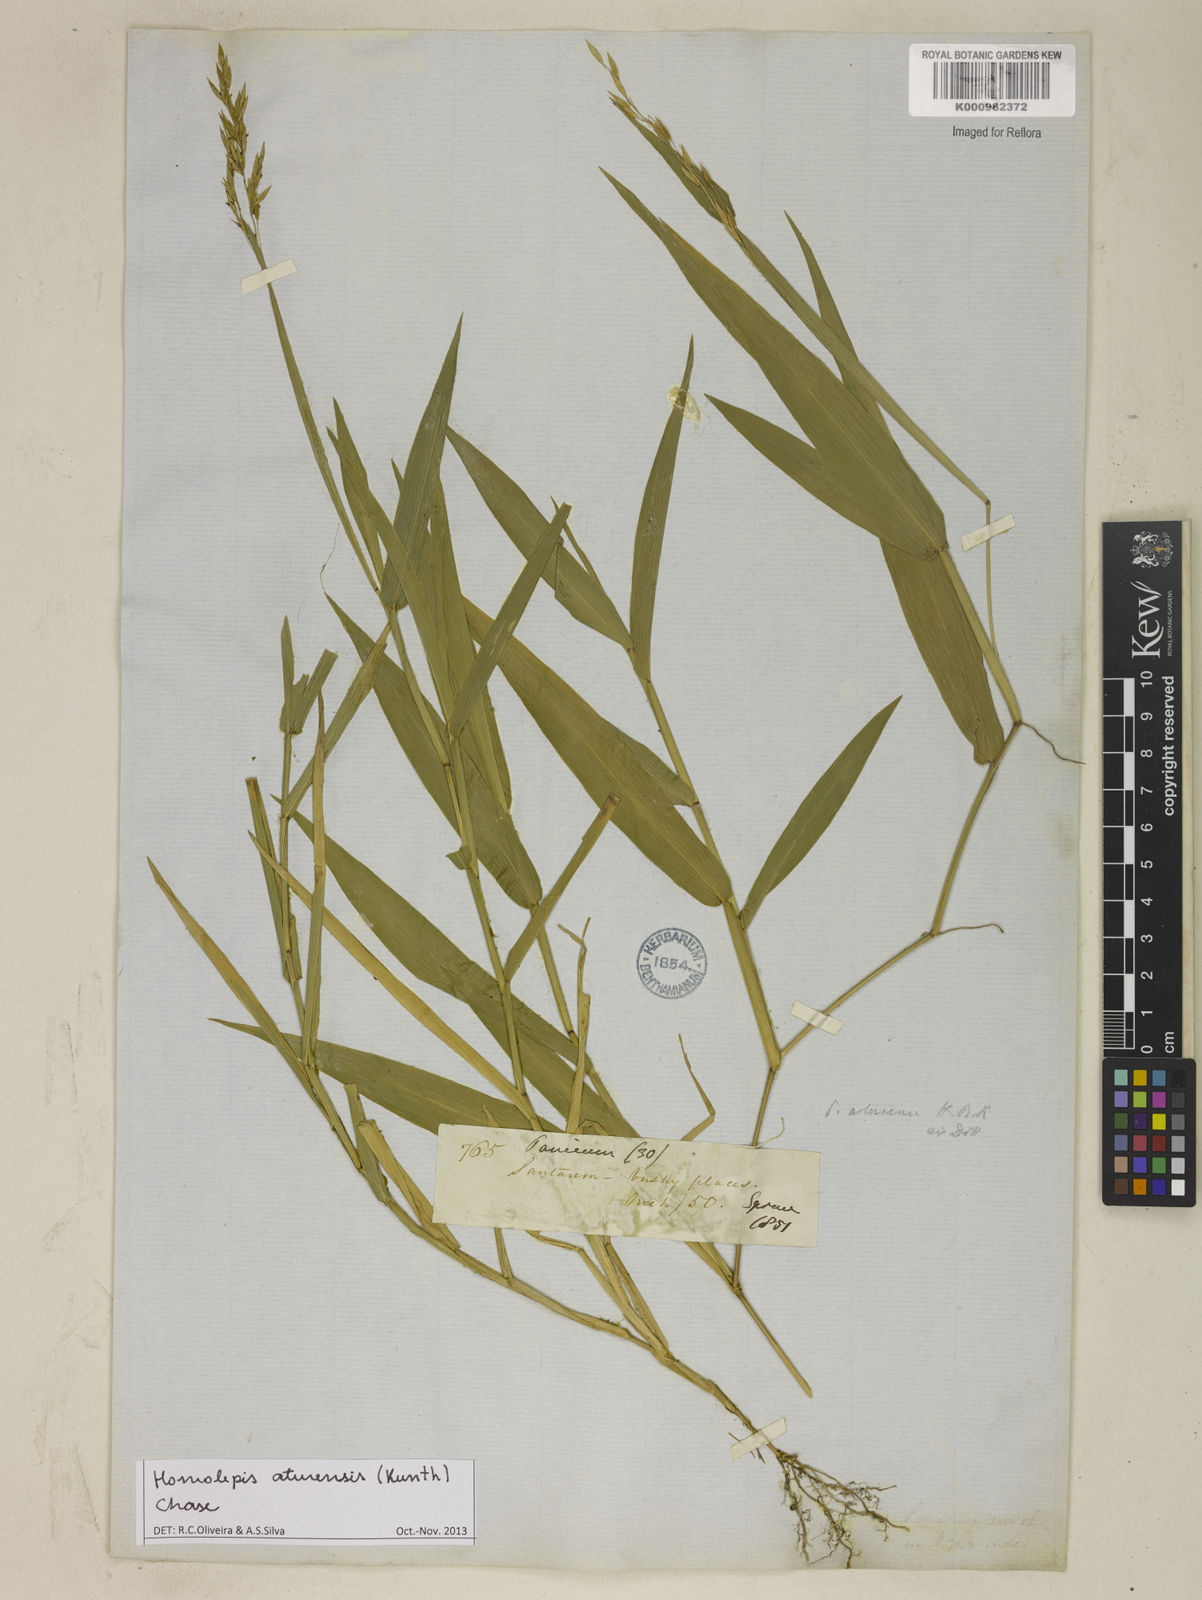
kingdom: Plantae
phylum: Tracheophyta
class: Liliopsida
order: Poales
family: Poaceae
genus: Homolepis
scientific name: Homolepis aturensis
